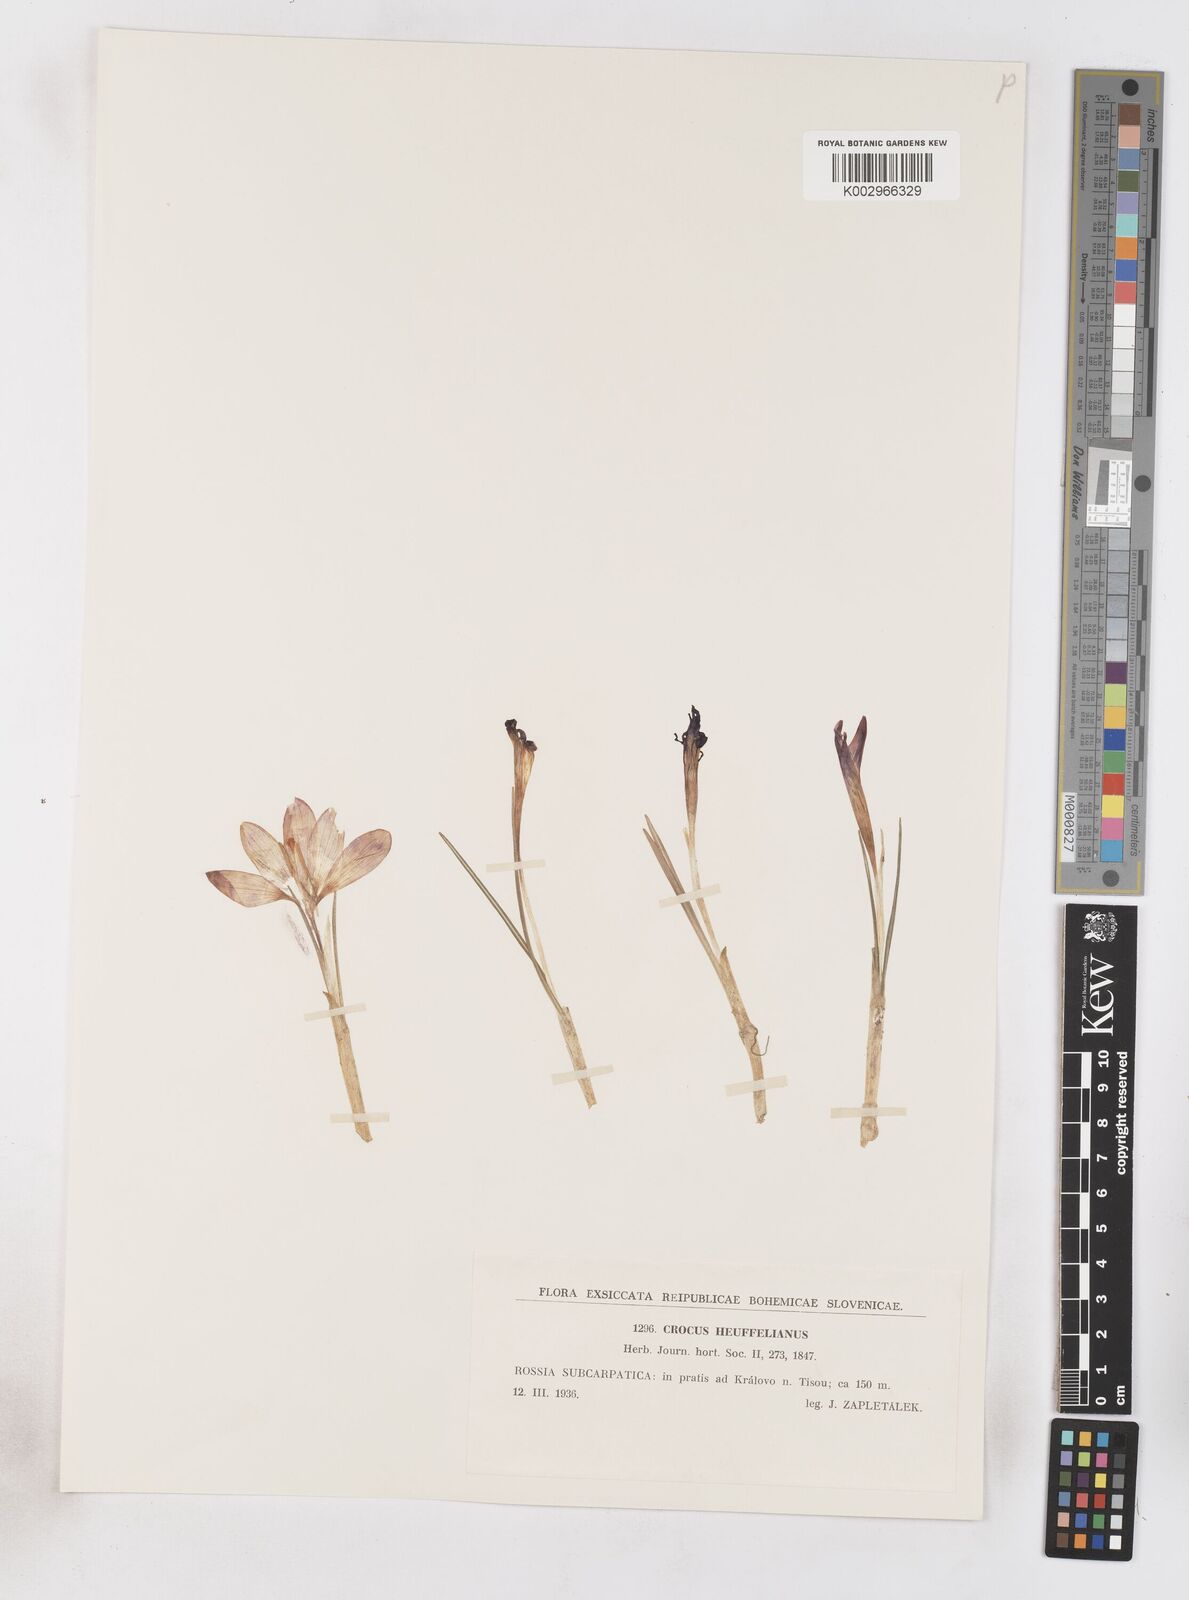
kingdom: Plantae
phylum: Tracheophyta
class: Liliopsida
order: Asparagales
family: Iridaceae
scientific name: Iridaceae
